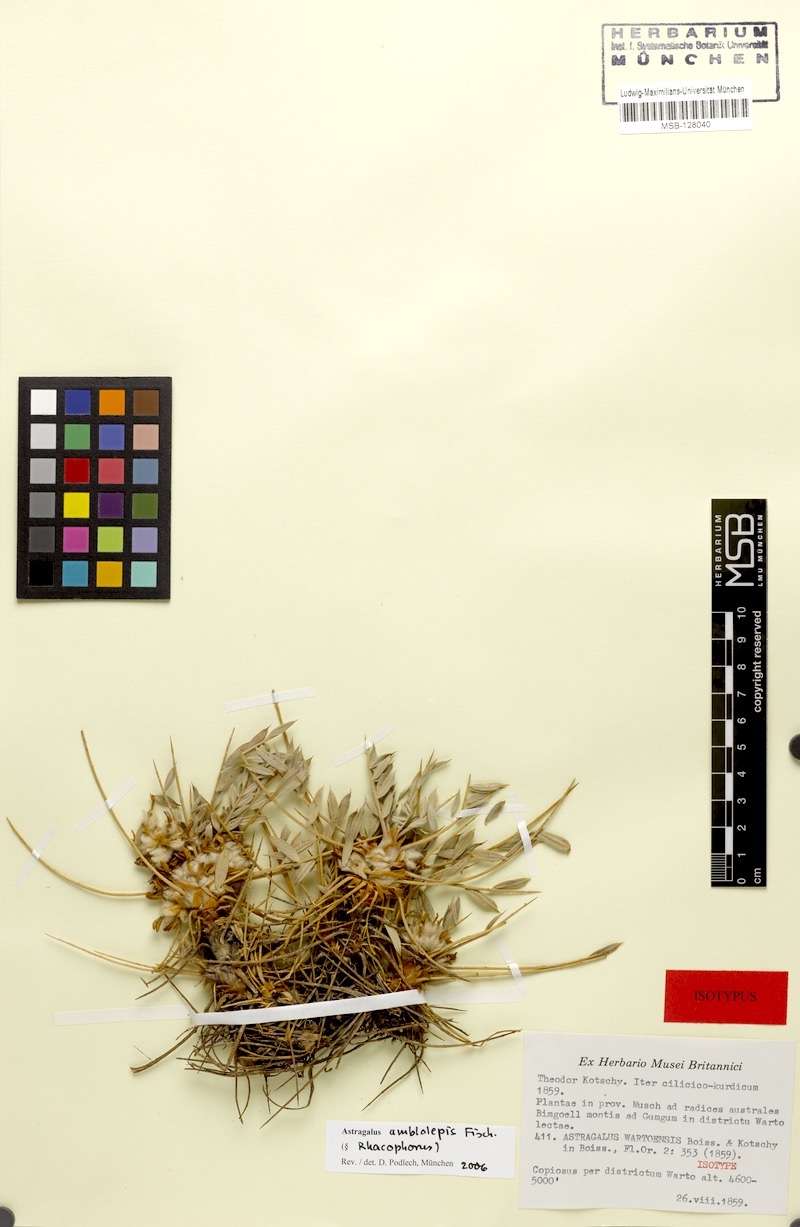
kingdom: Plantae
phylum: Tracheophyta
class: Magnoliopsida
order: Fabales
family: Fabaceae
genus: Astragalus
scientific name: Astragalus amblolepis
